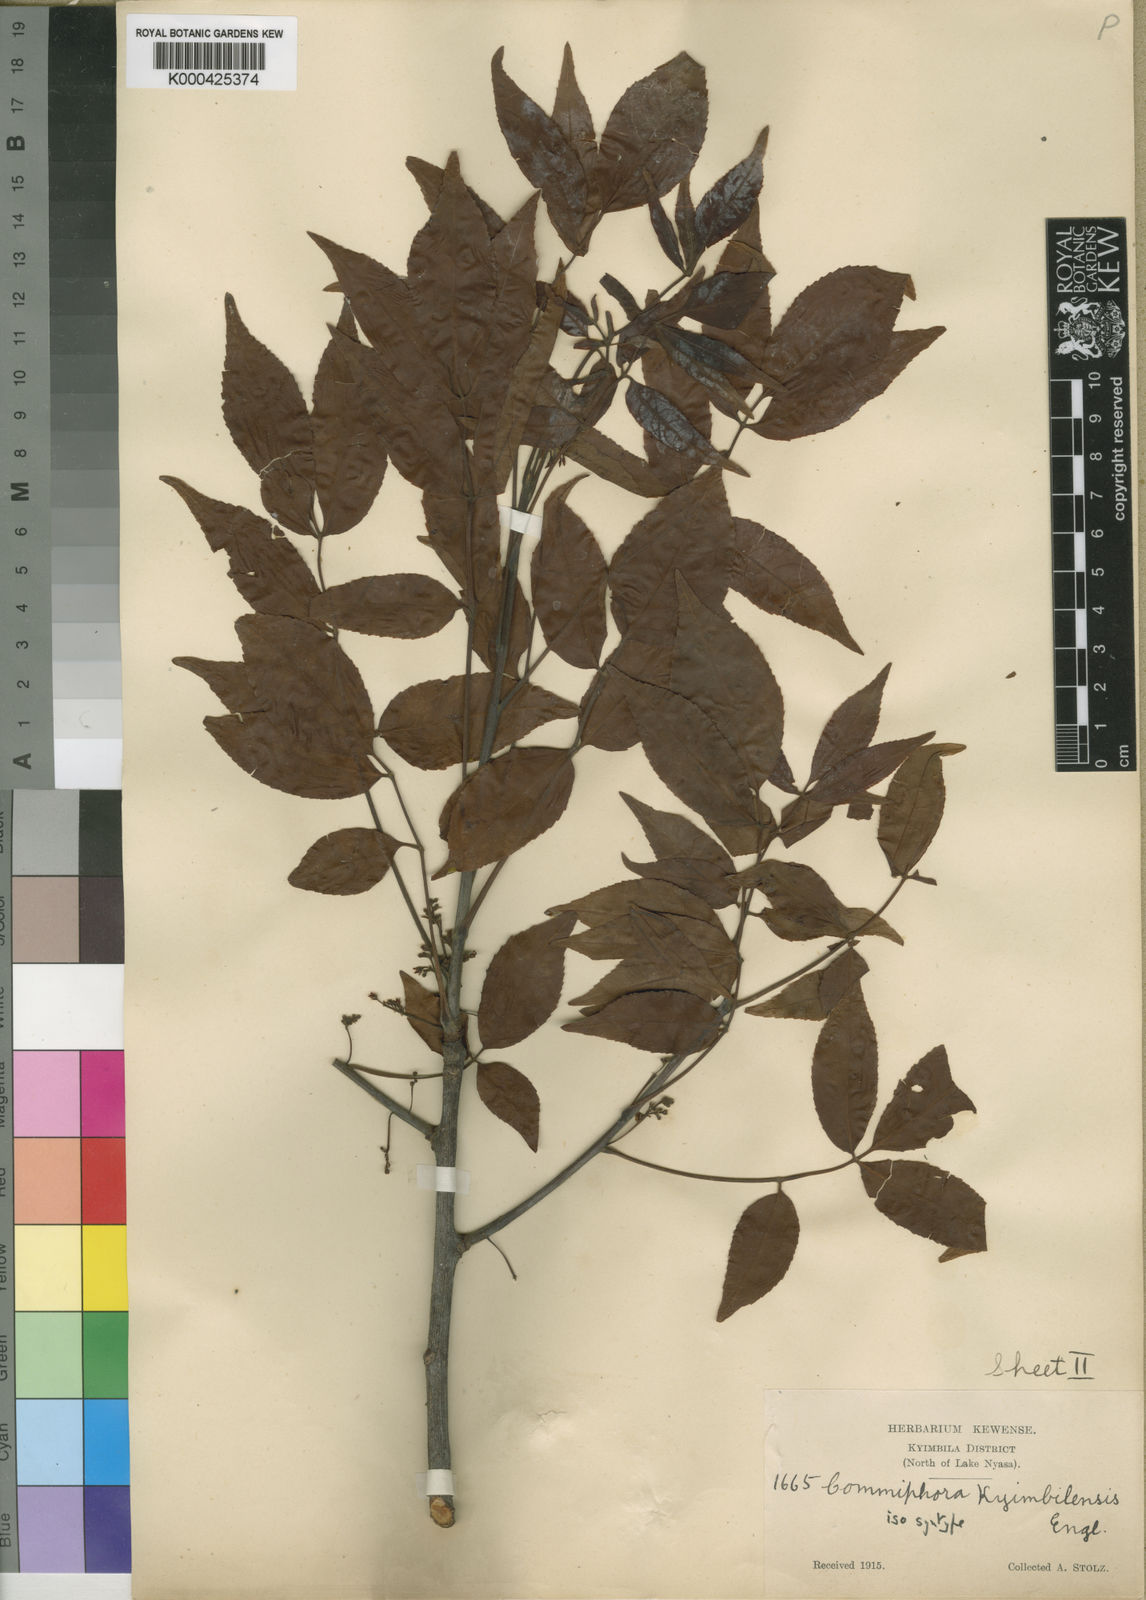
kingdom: Plantae
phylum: Tracheophyta
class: Magnoliopsida
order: Sapindales
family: Burseraceae
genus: Commiphora
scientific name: Commiphora eminii
